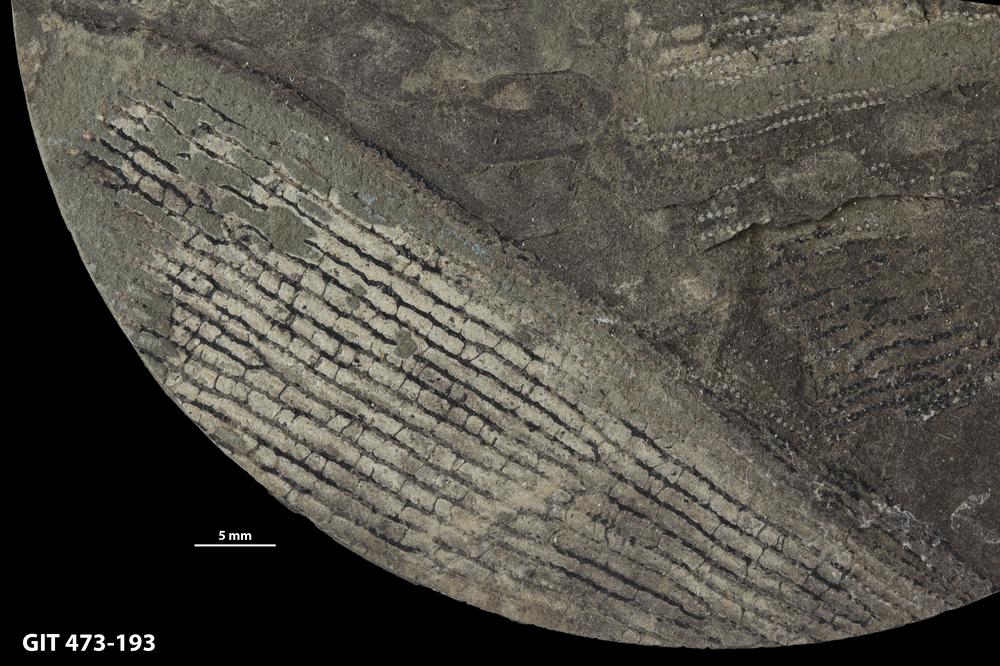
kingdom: Animalia
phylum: Hemichordata
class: Pterobranchia
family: Anisograptidae
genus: Rhabdinopora
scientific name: Rhabdinopora
